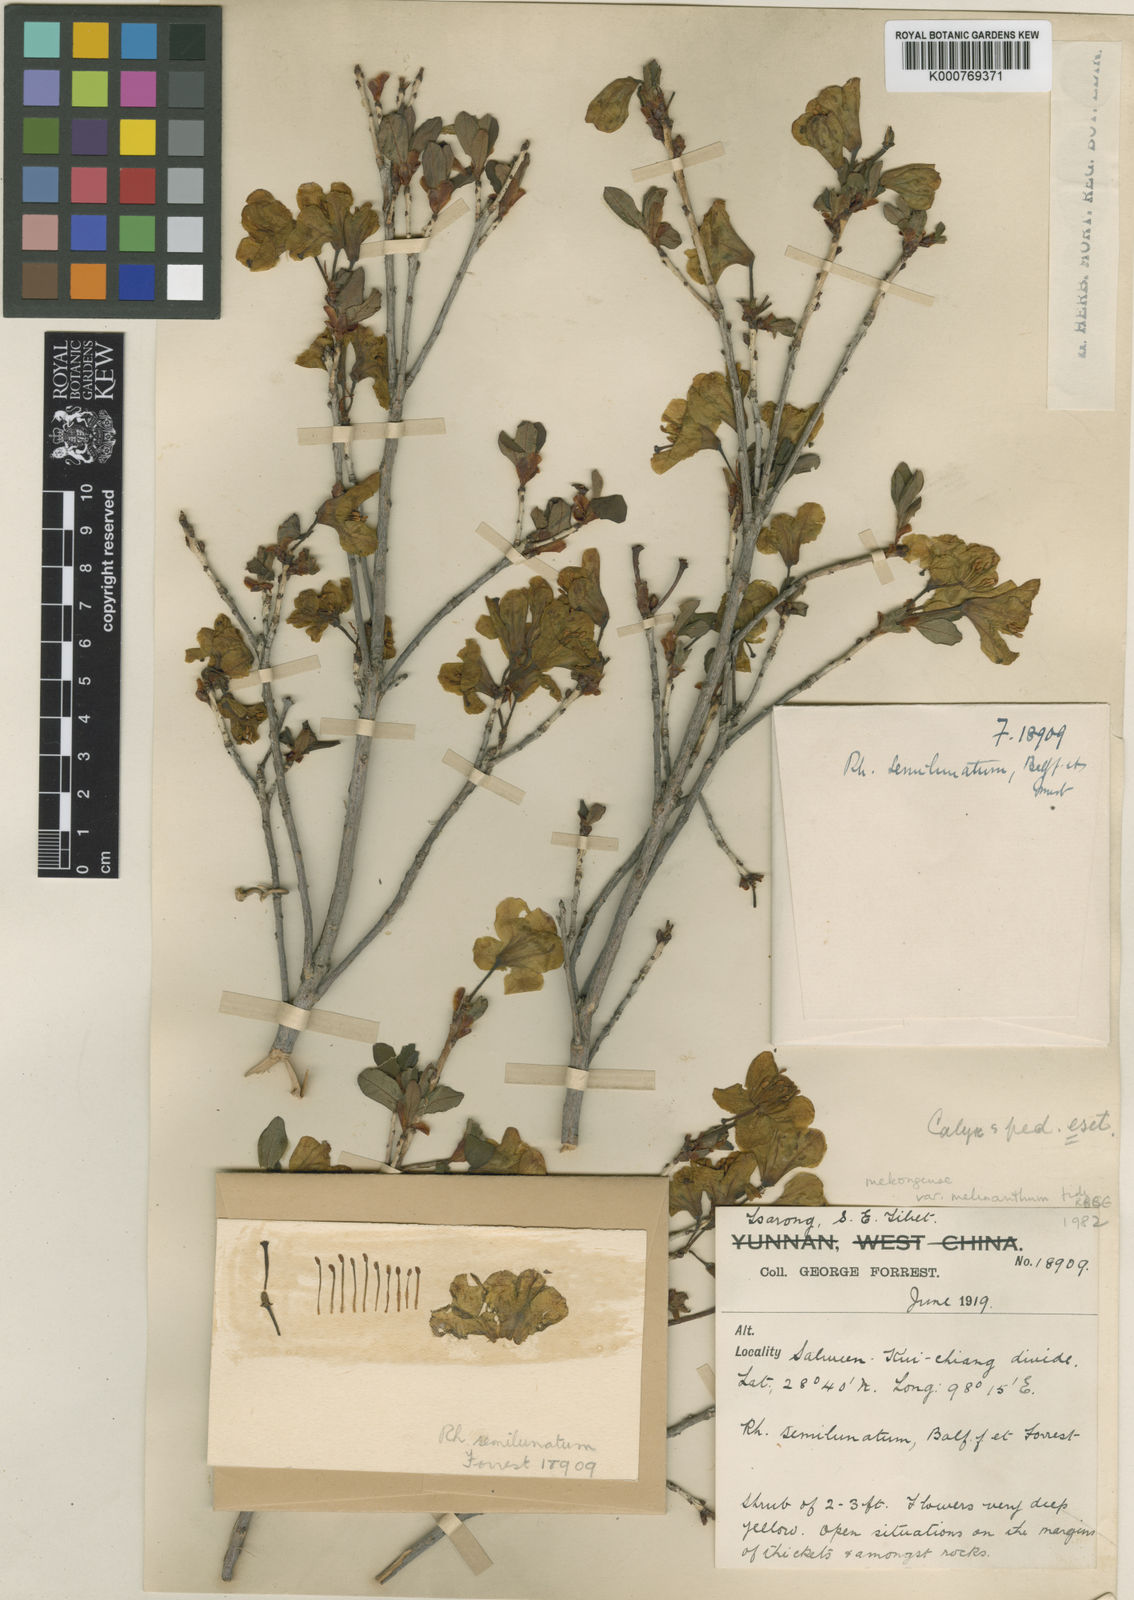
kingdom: Plantae
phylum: Tracheophyta
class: Magnoliopsida
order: Ericales
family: Ericaceae
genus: Rhododendron
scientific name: Rhododendron mekongense
